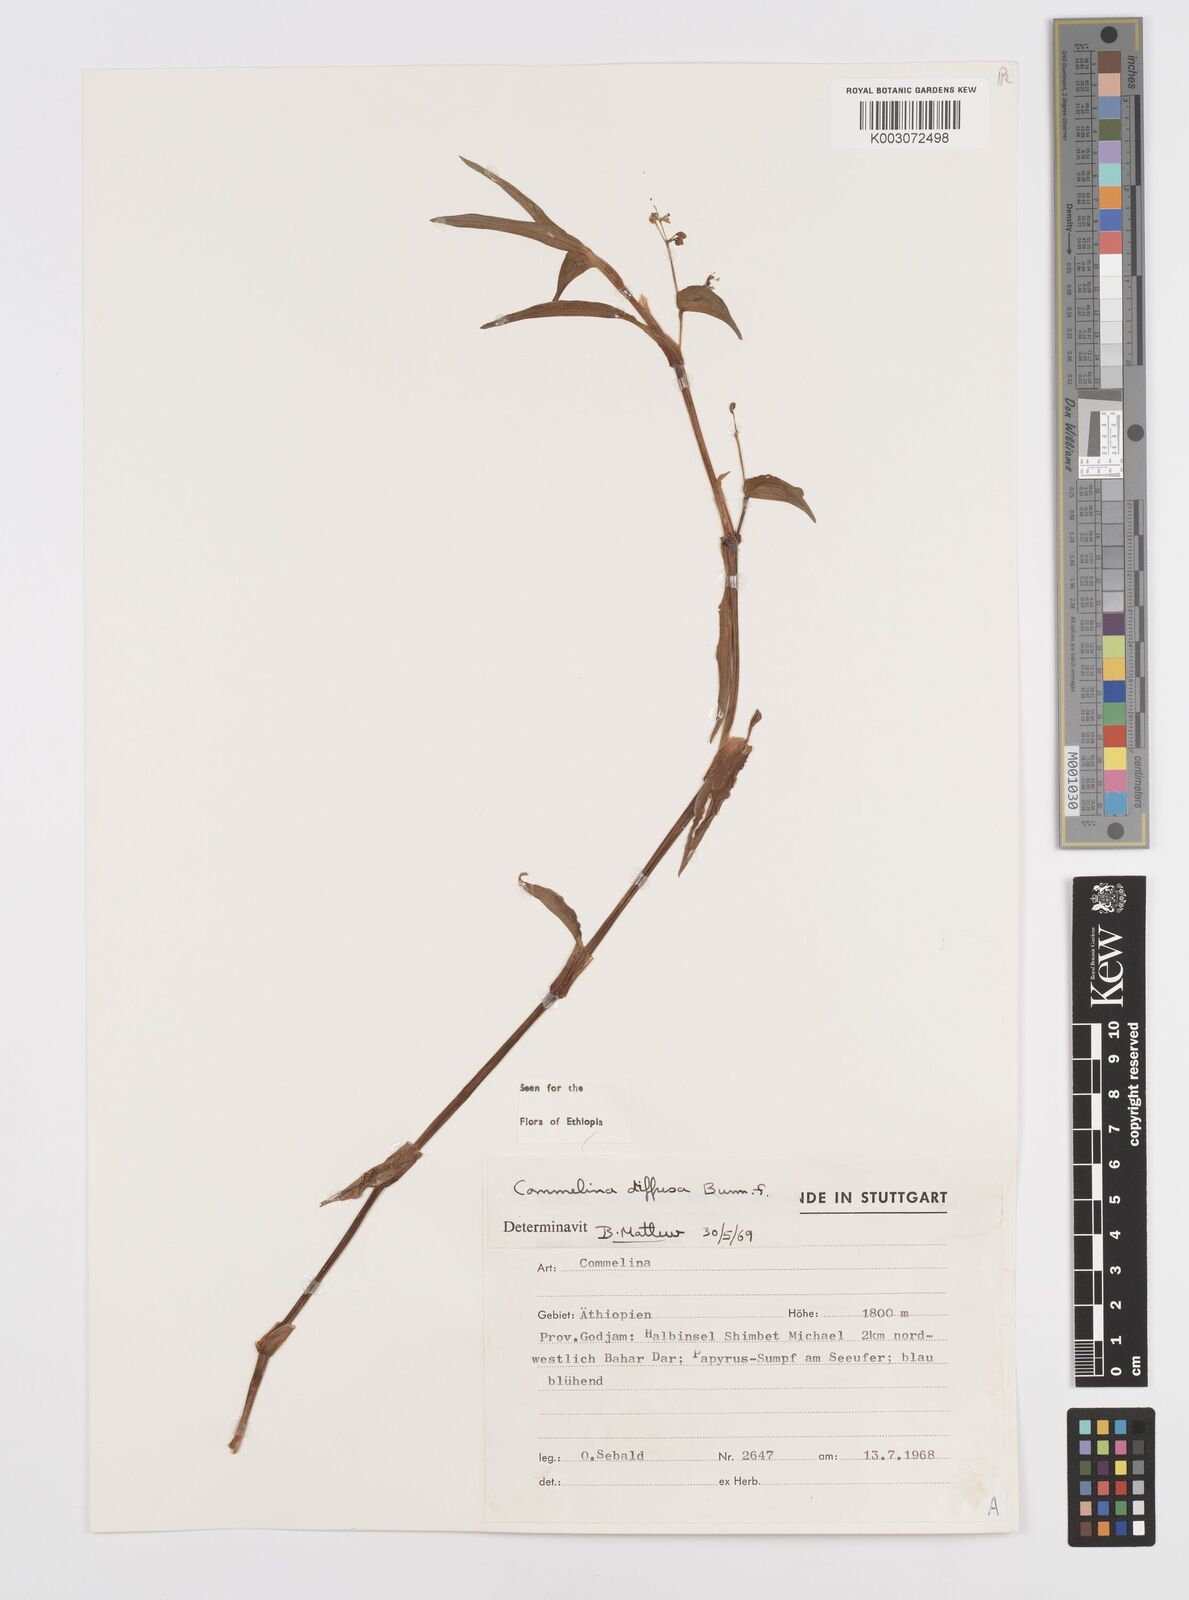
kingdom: Plantae
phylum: Tracheophyta
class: Liliopsida
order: Commelinales
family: Commelinaceae
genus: Commelina
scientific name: Commelina diffusa
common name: Climbing dayflower
